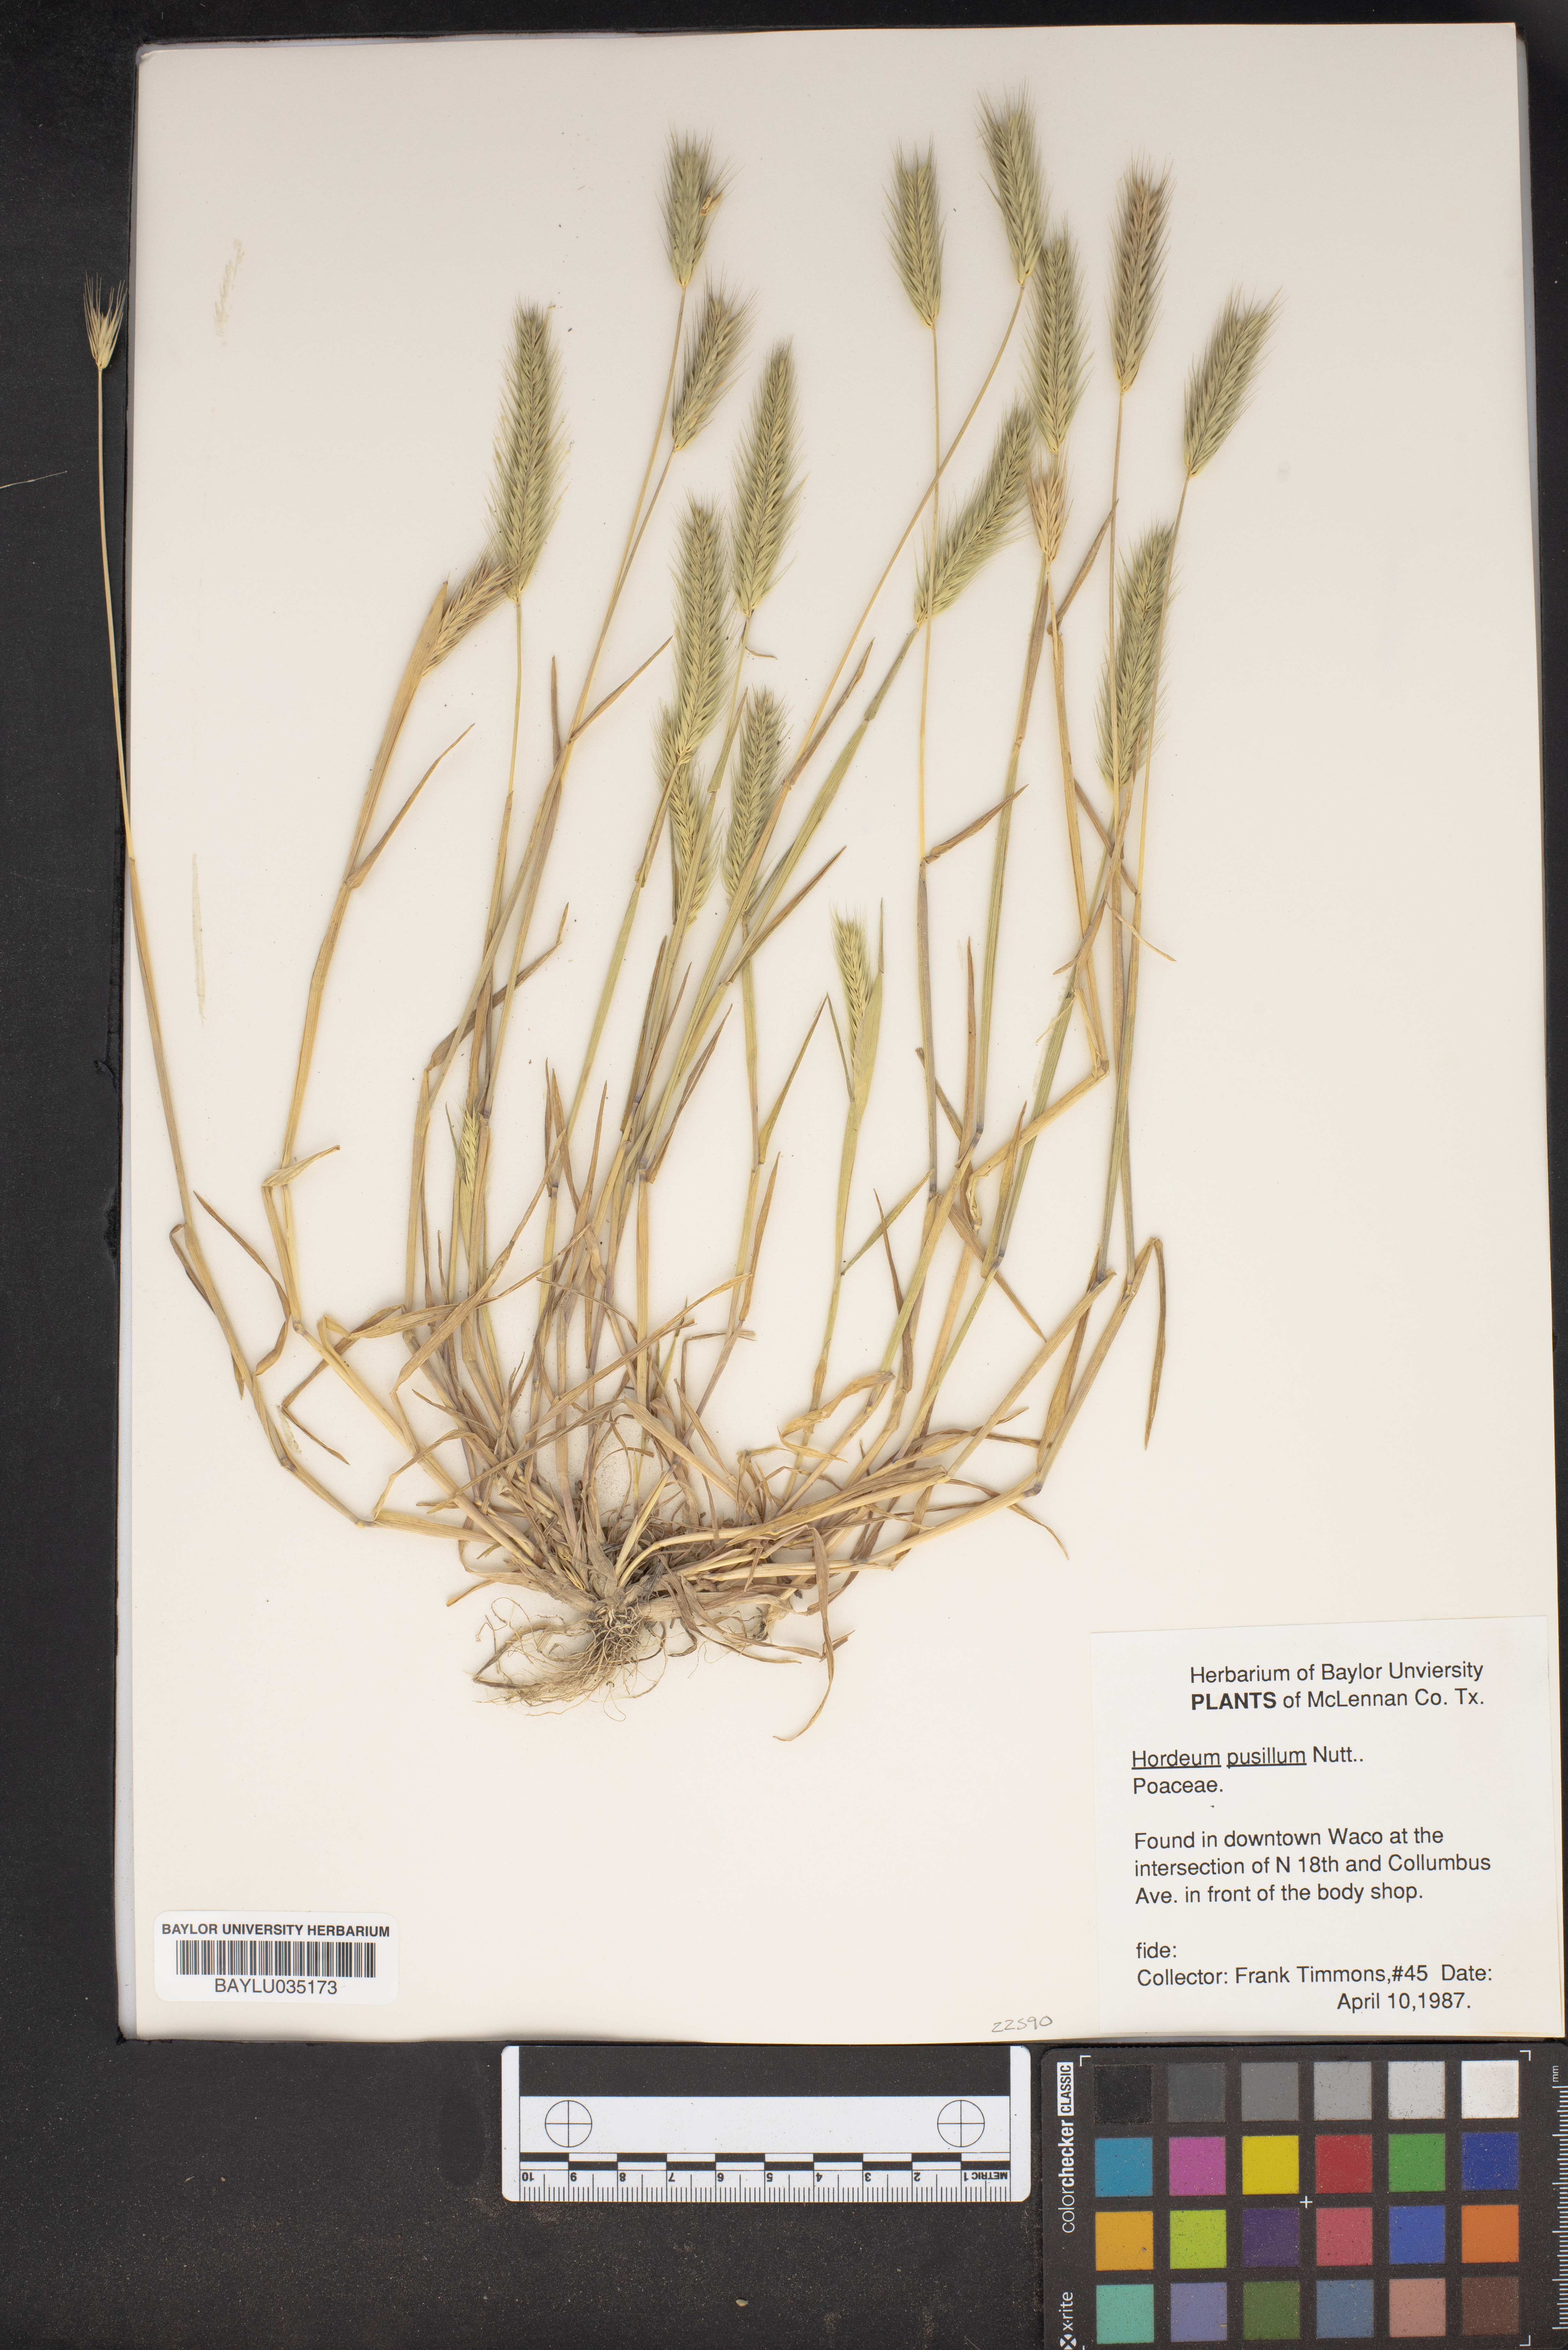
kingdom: Plantae
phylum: Tracheophyta
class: Liliopsida
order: Poales
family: Poaceae
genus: Hordeum
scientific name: Hordeum pusillum
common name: Little barley
